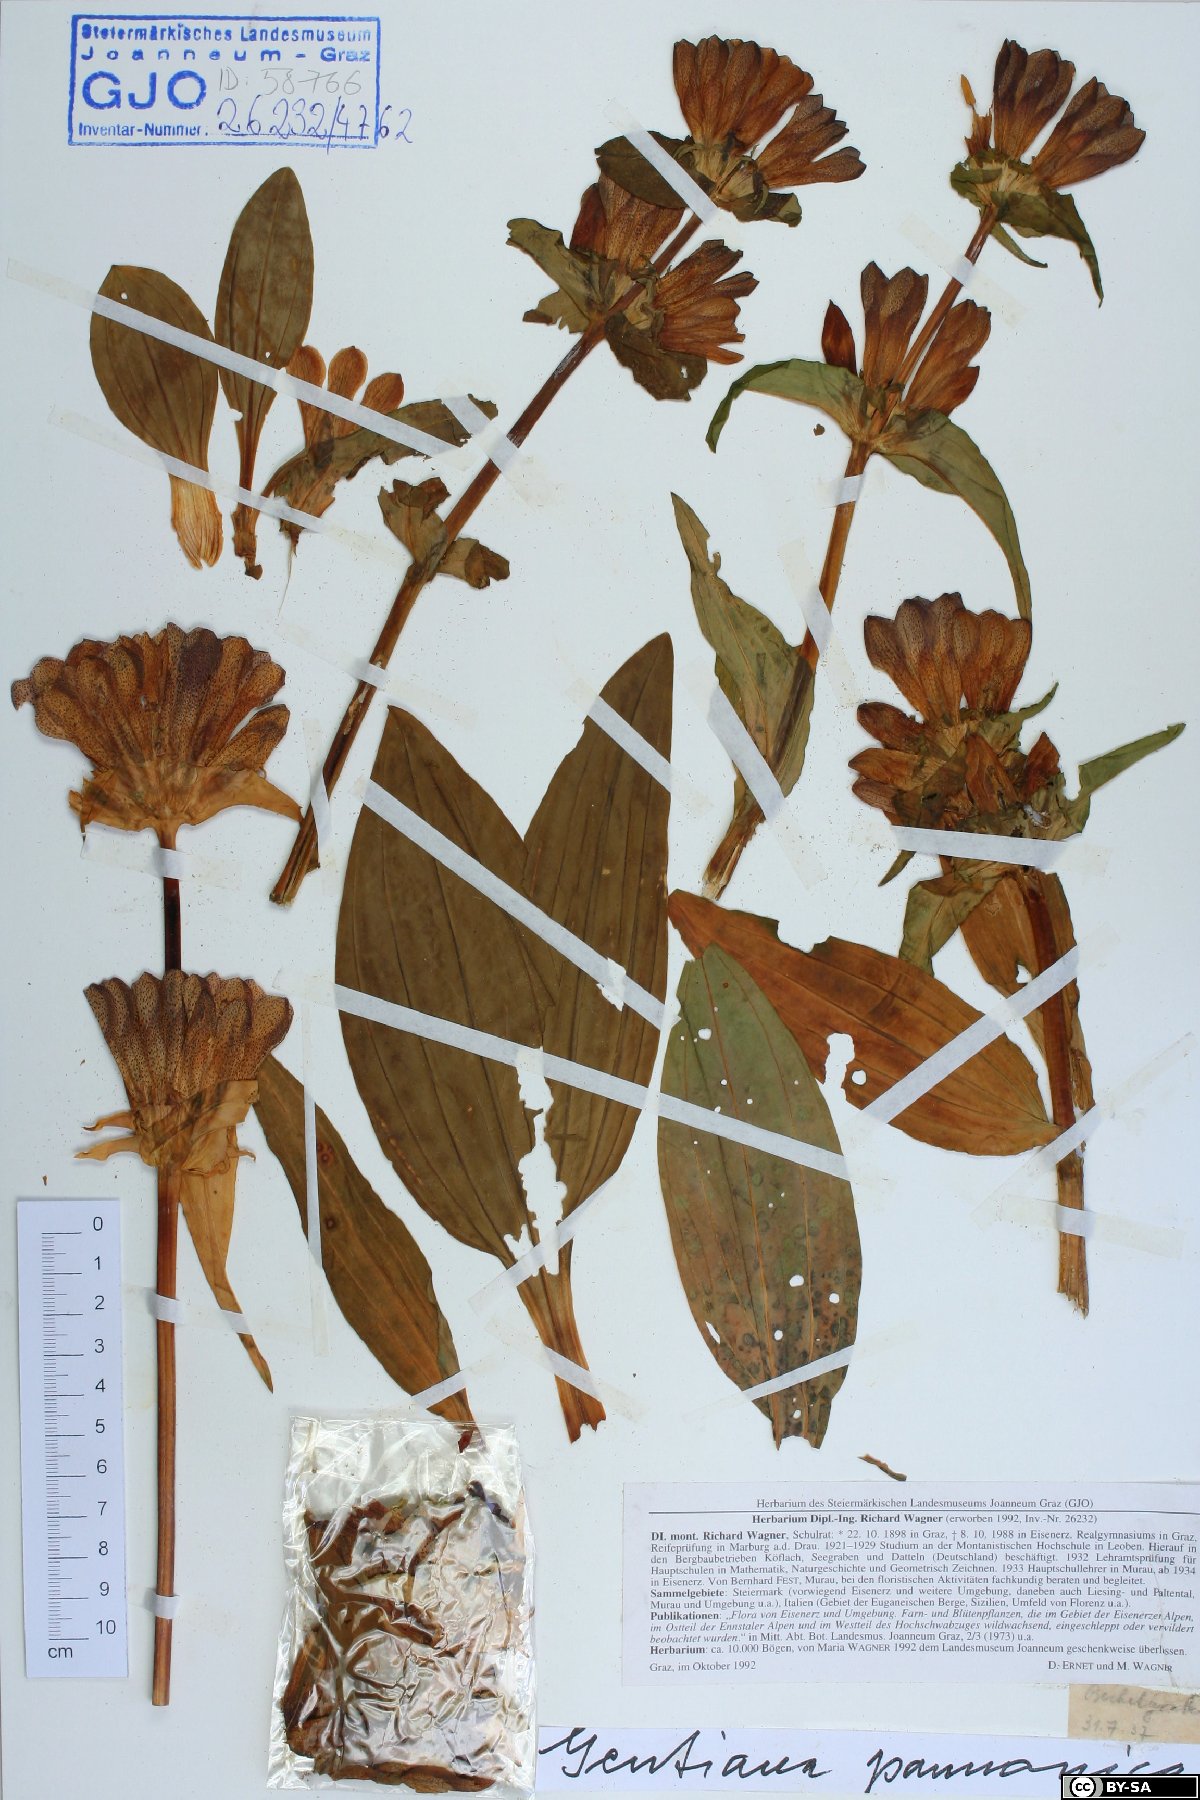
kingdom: Plantae
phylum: Tracheophyta
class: Magnoliopsida
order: Gentianales
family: Gentianaceae
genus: Gentiana
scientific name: Gentiana pannonica
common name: Hungarian gentian
